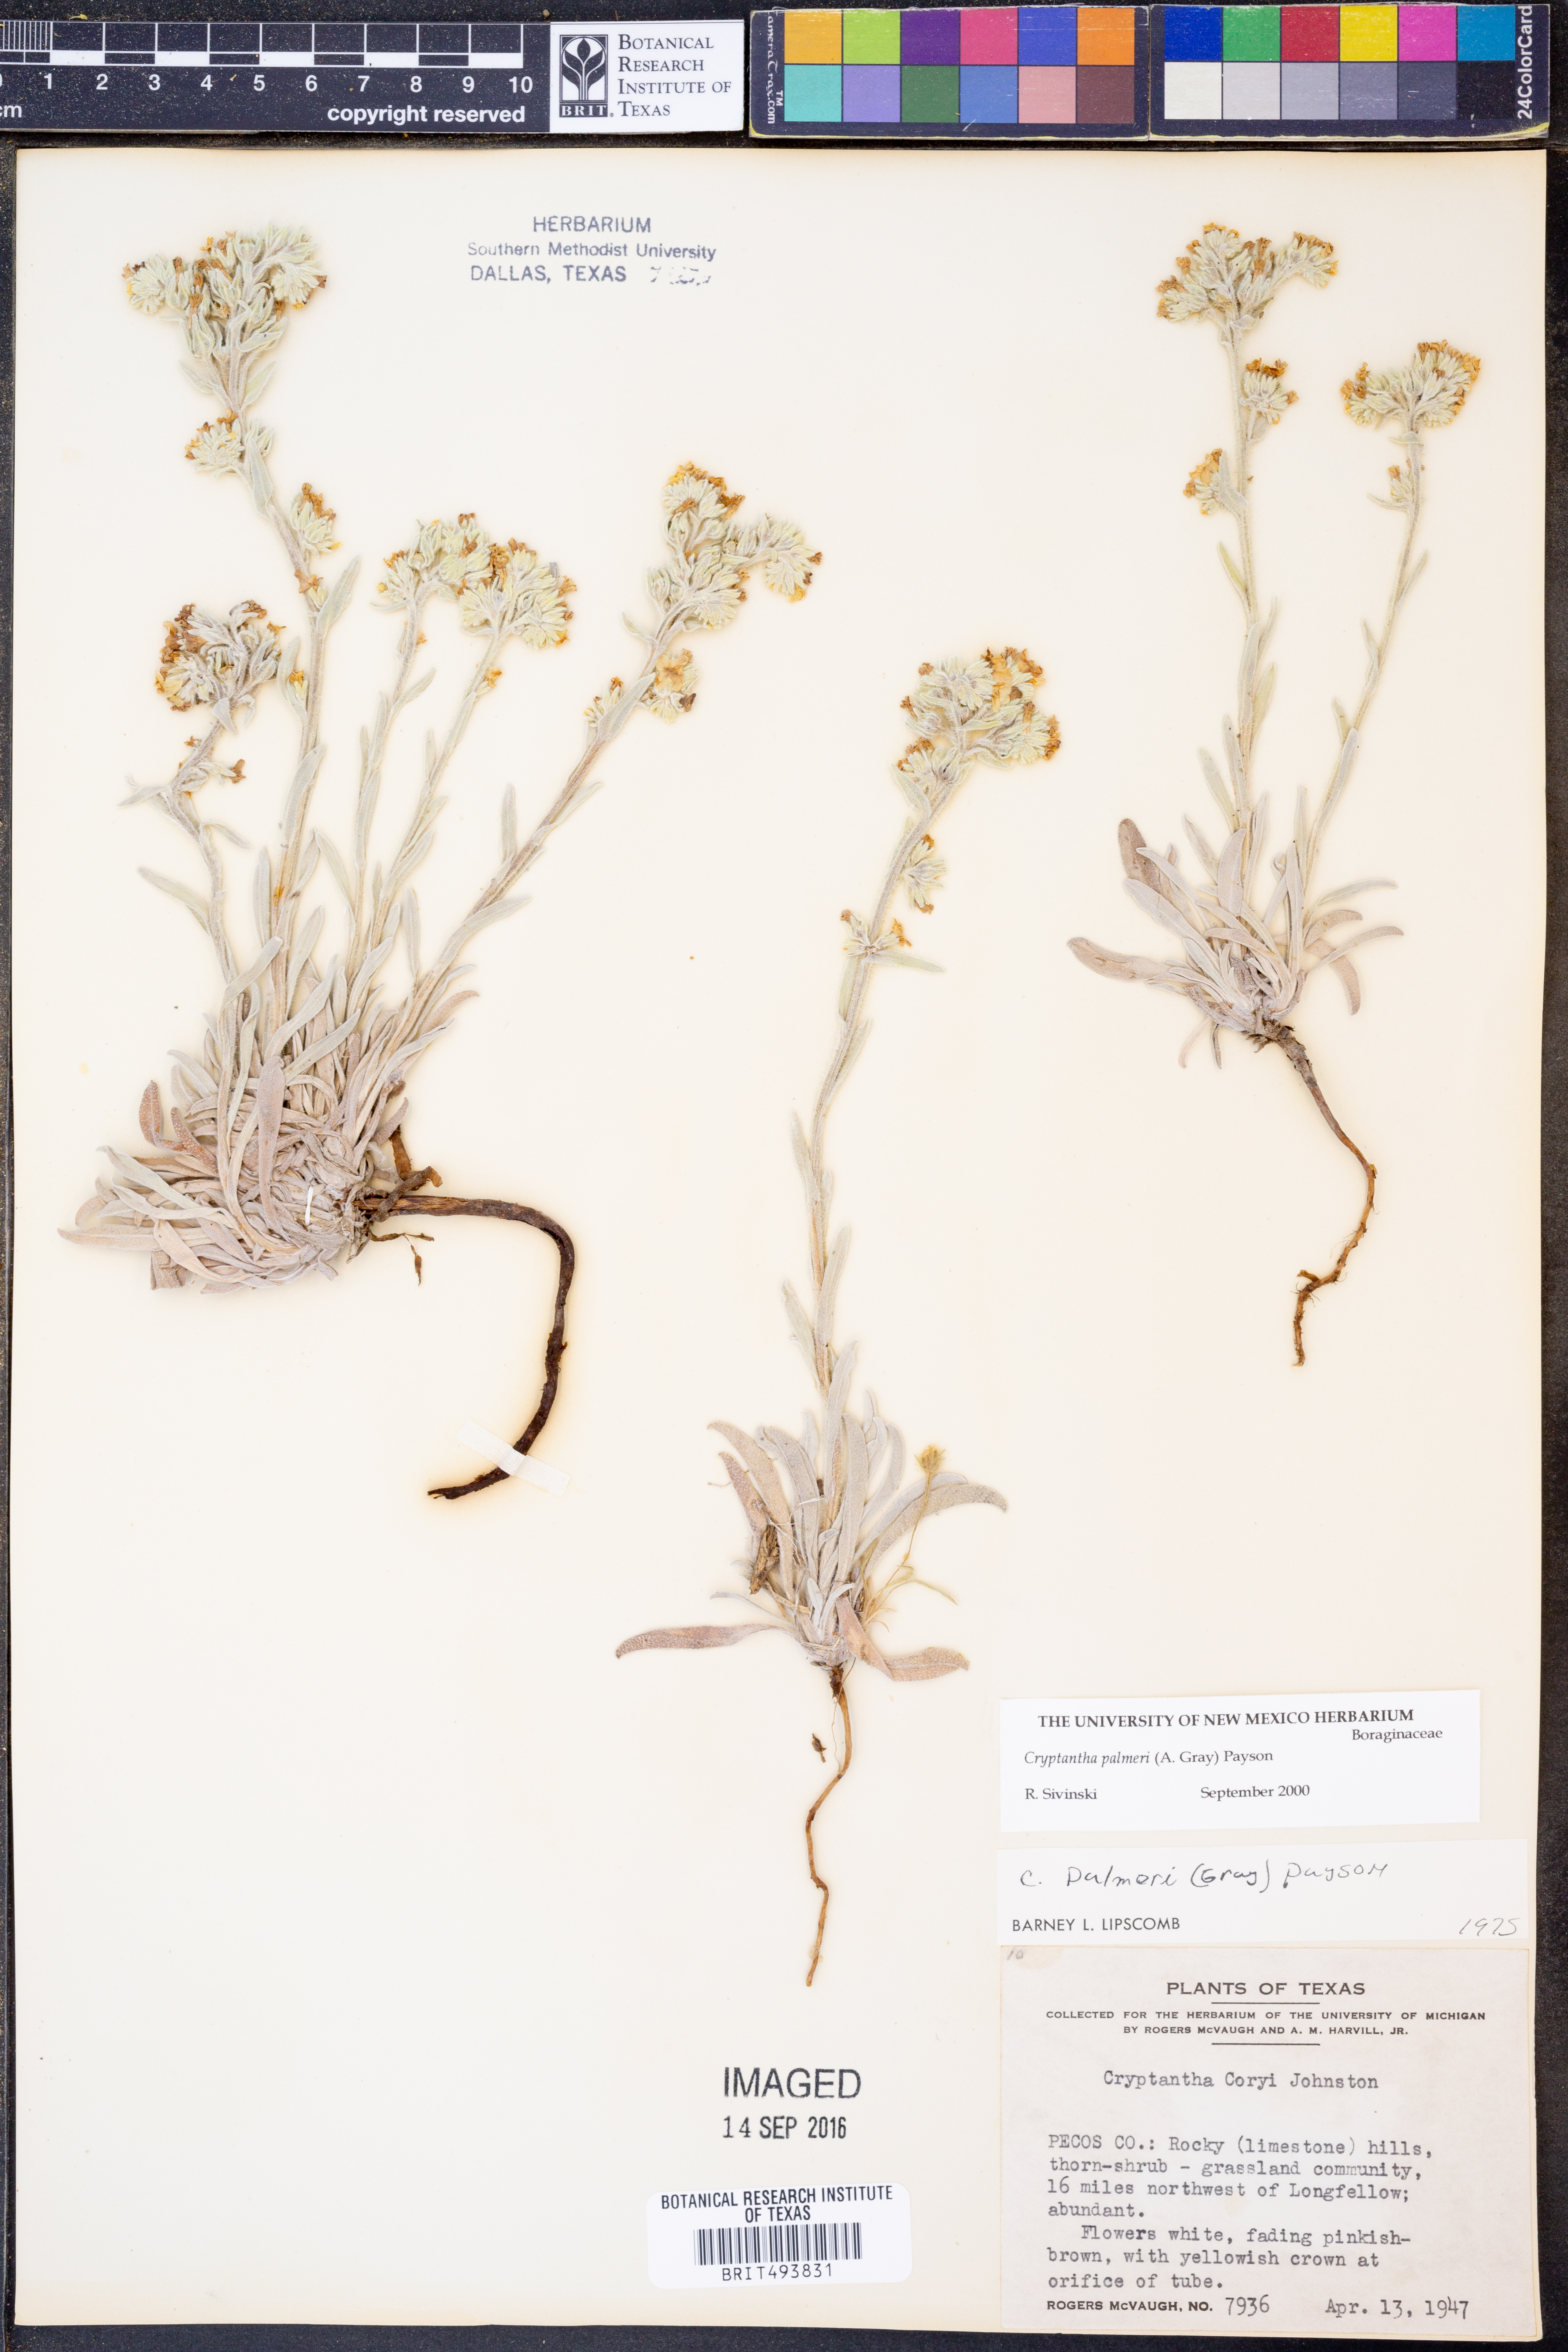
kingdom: Plantae
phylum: Tracheophyta
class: Magnoliopsida
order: Boraginales
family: Boraginaceae
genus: Oreocarya
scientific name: Oreocarya palmeri
